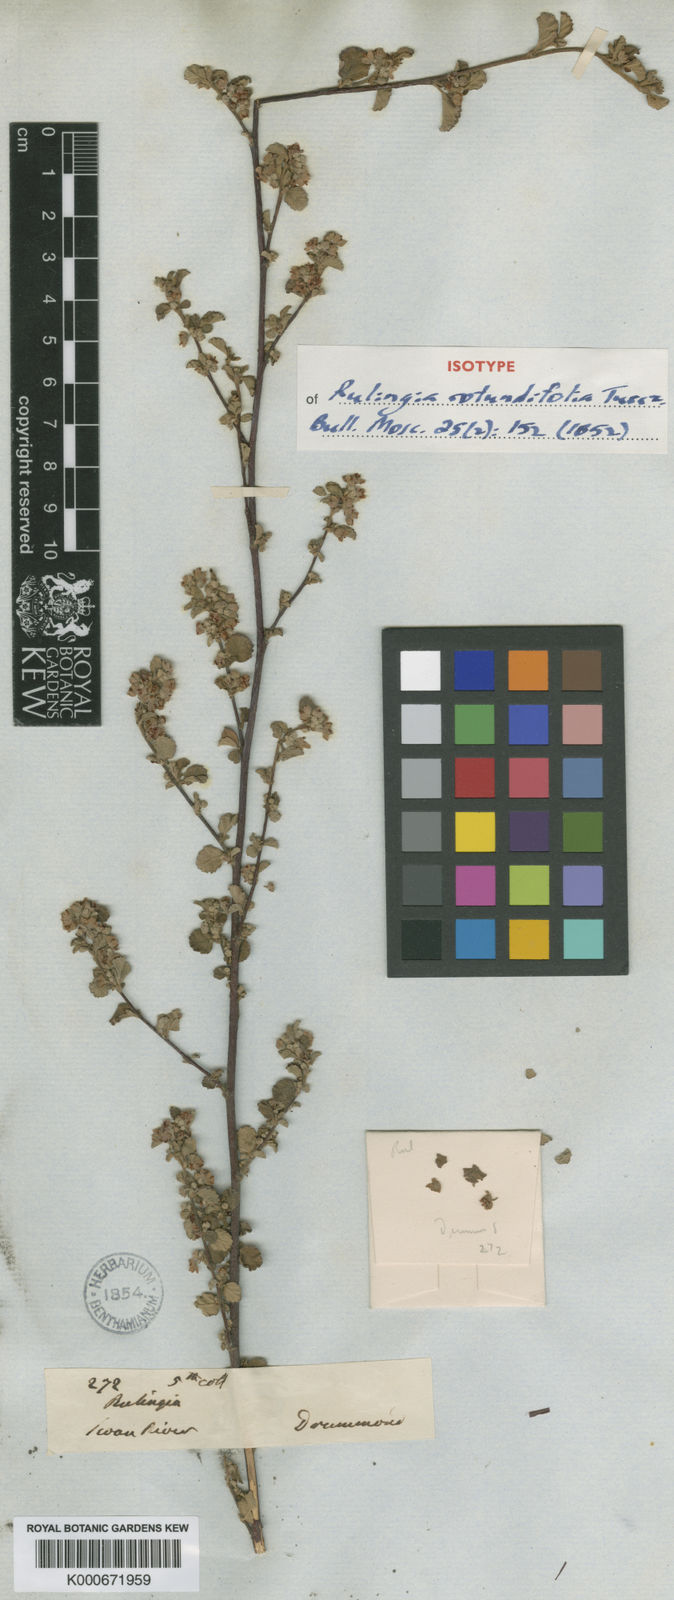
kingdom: Plantae
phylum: Tracheophyta
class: Magnoliopsida
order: Malvales
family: Malvaceae
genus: Commersonia
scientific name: Commersonia rotundifolia
